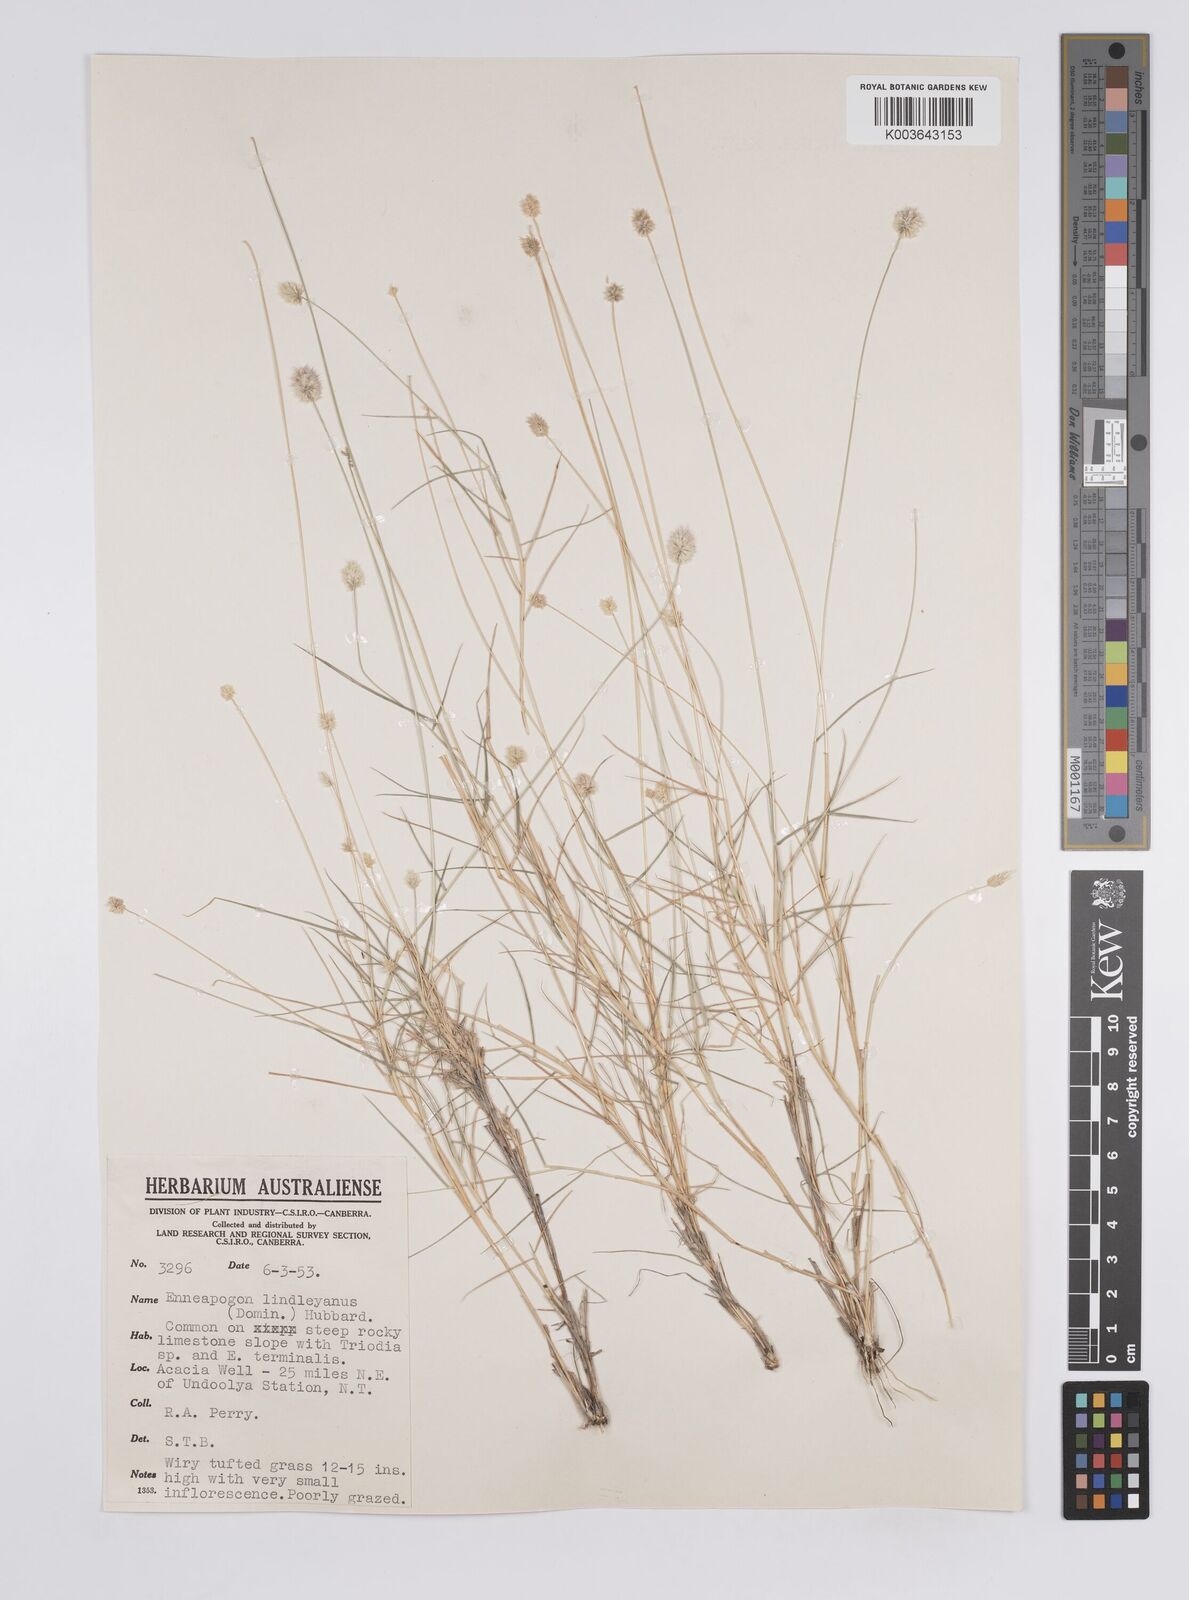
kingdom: Plantae
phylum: Tracheophyta
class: Liliopsida
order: Poales
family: Poaceae
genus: Enneapogon
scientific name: Enneapogon lindleyanus
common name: Conetop nineawn
